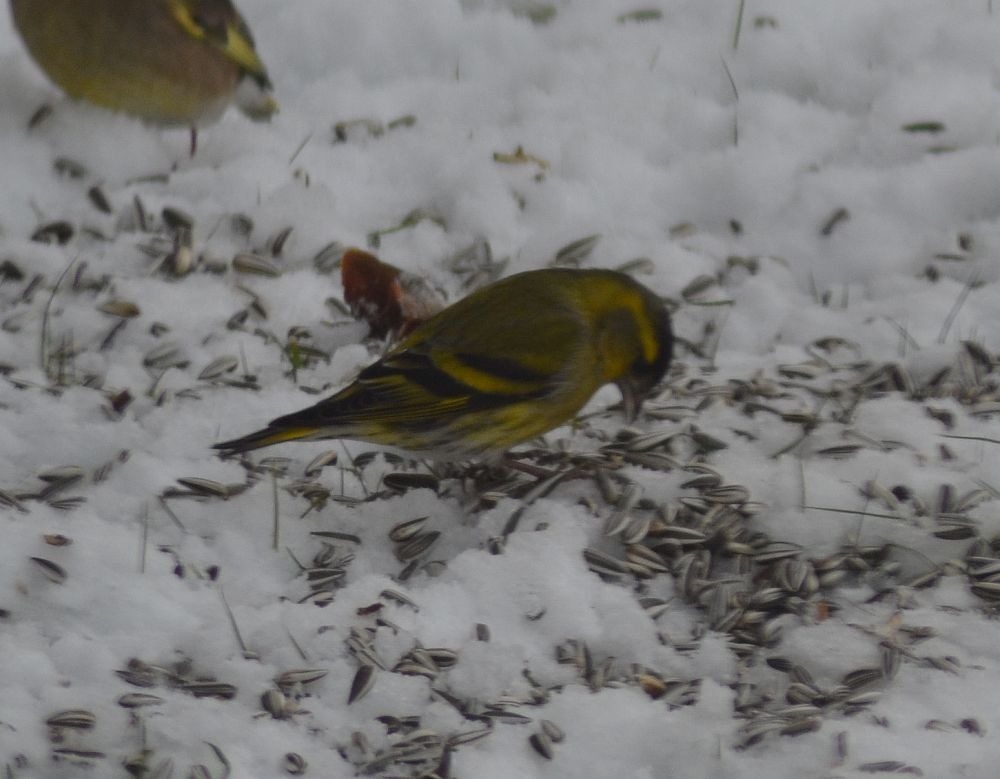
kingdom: Animalia
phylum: Chordata
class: Aves
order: Passeriformes
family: Fringillidae
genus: Spinus
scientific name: Spinus spinus
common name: Grønsisken
